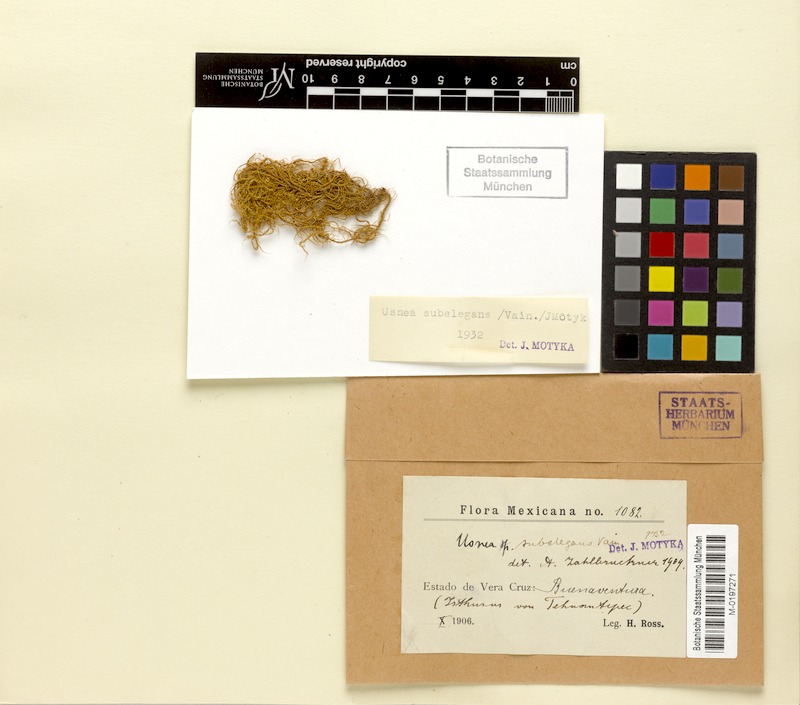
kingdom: Fungi
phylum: Ascomycota
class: Lecanoromycetes
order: Lecanorales
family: Parmeliaceae
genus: Usnea
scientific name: Usnea subelegans
